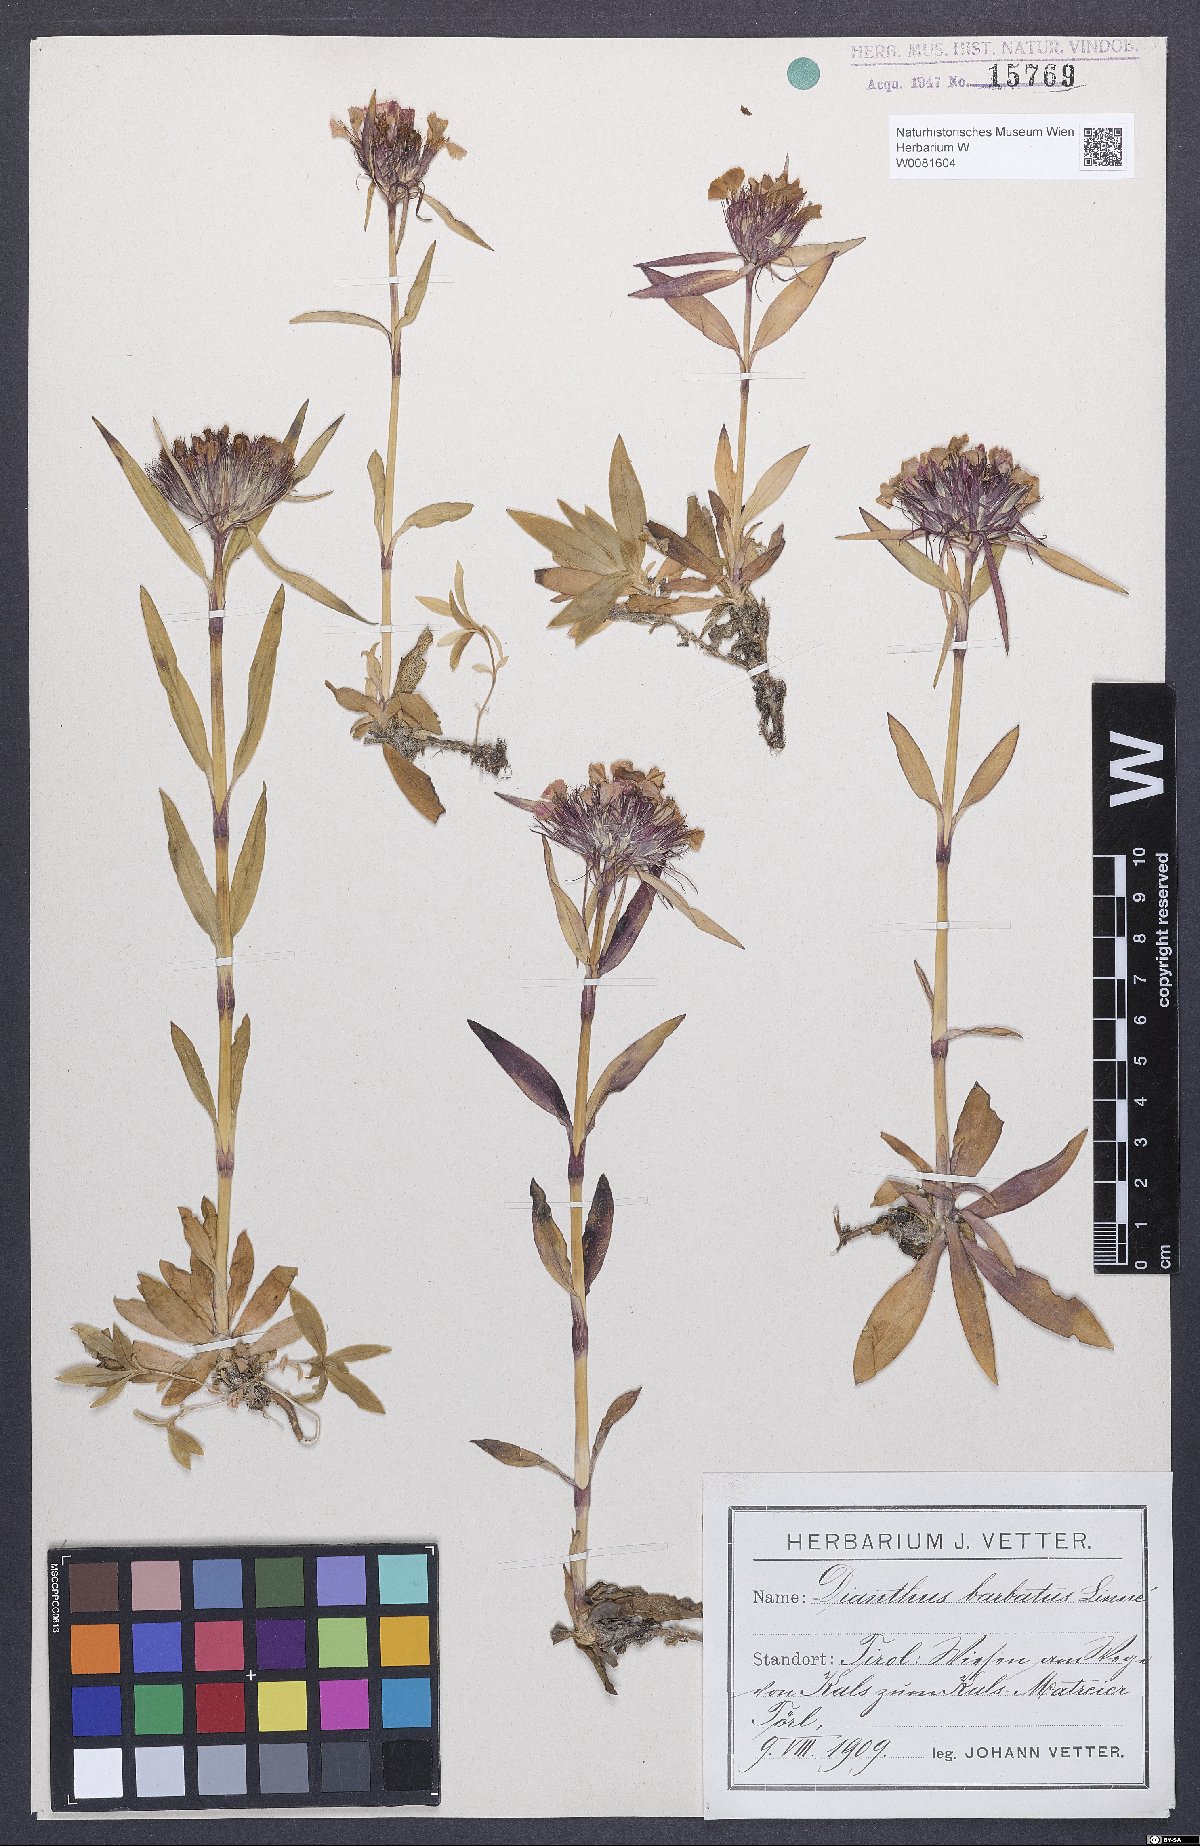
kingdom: Plantae
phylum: Tracheophyta
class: Magnoliopsida
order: Caryophyllales
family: Caryophyllaceae
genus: Dianthus
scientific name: Dianthus barbatus
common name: Sweet-william
